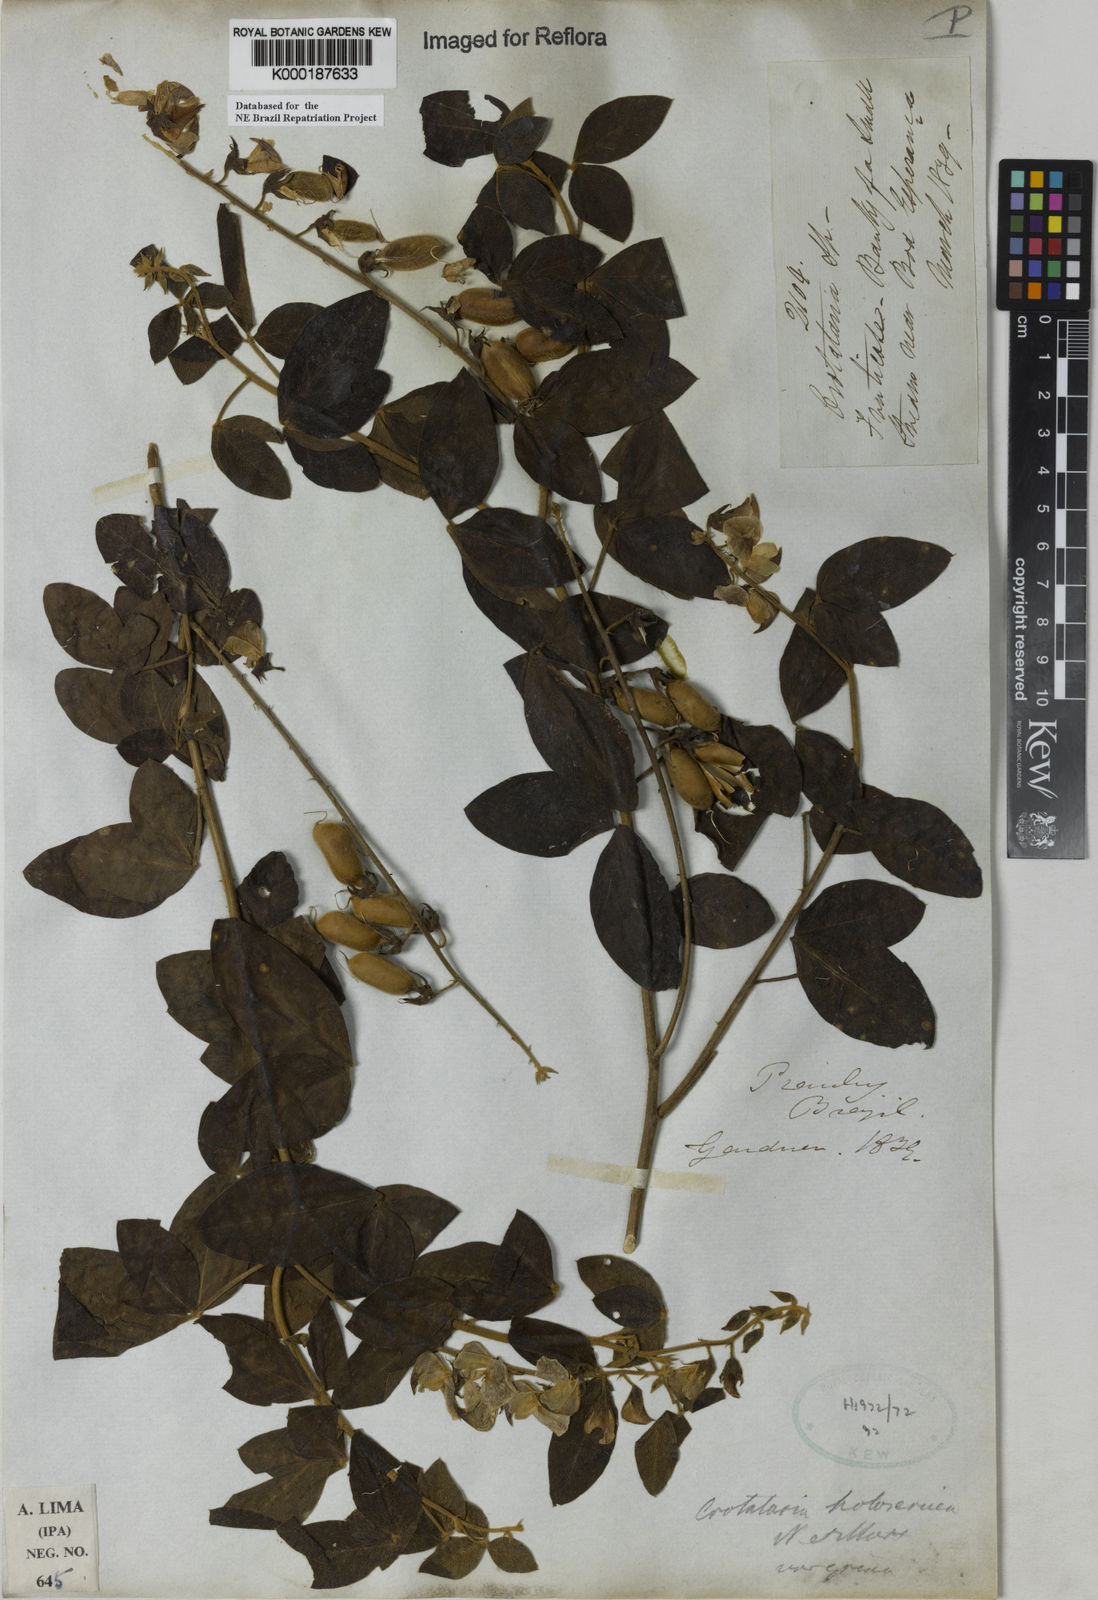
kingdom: Plantae
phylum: Tracheophyta
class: Magnoliopsida
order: Fabales
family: Fabaceae
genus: Crotalaria
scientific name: Crotalaria holosericea
